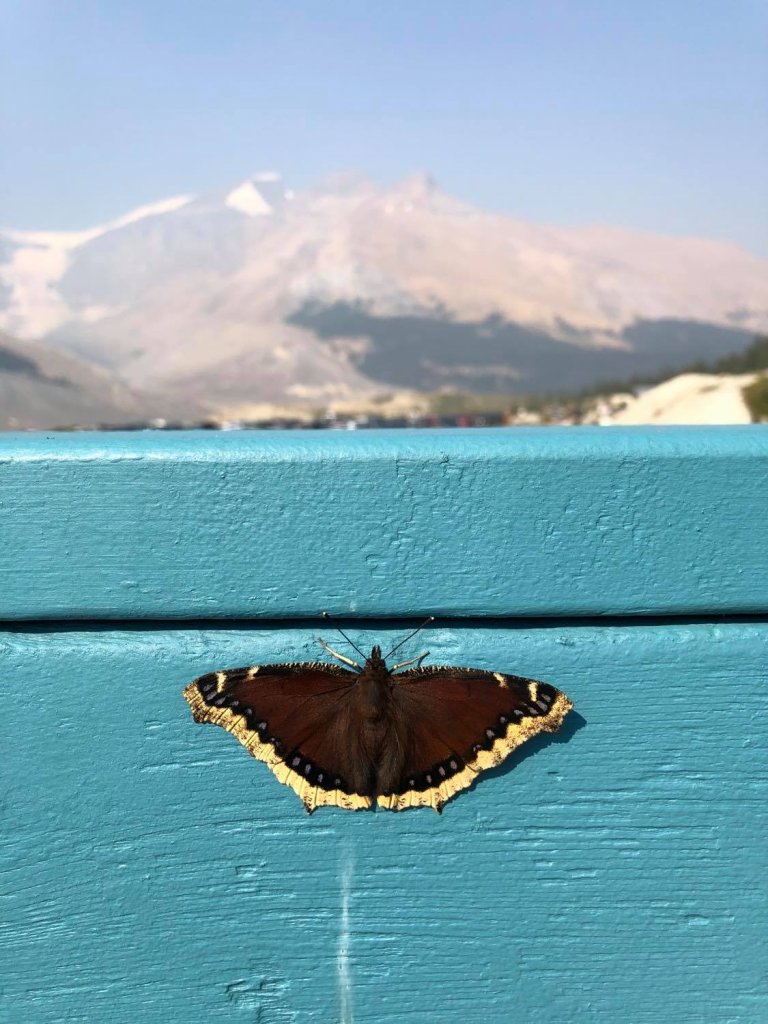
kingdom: Animalia
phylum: Arthropoda
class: Insecta
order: Lepidoptera
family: Nymphalidae
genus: Nymphalis
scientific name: Nymphalis antiopa
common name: Mourning Cloak
